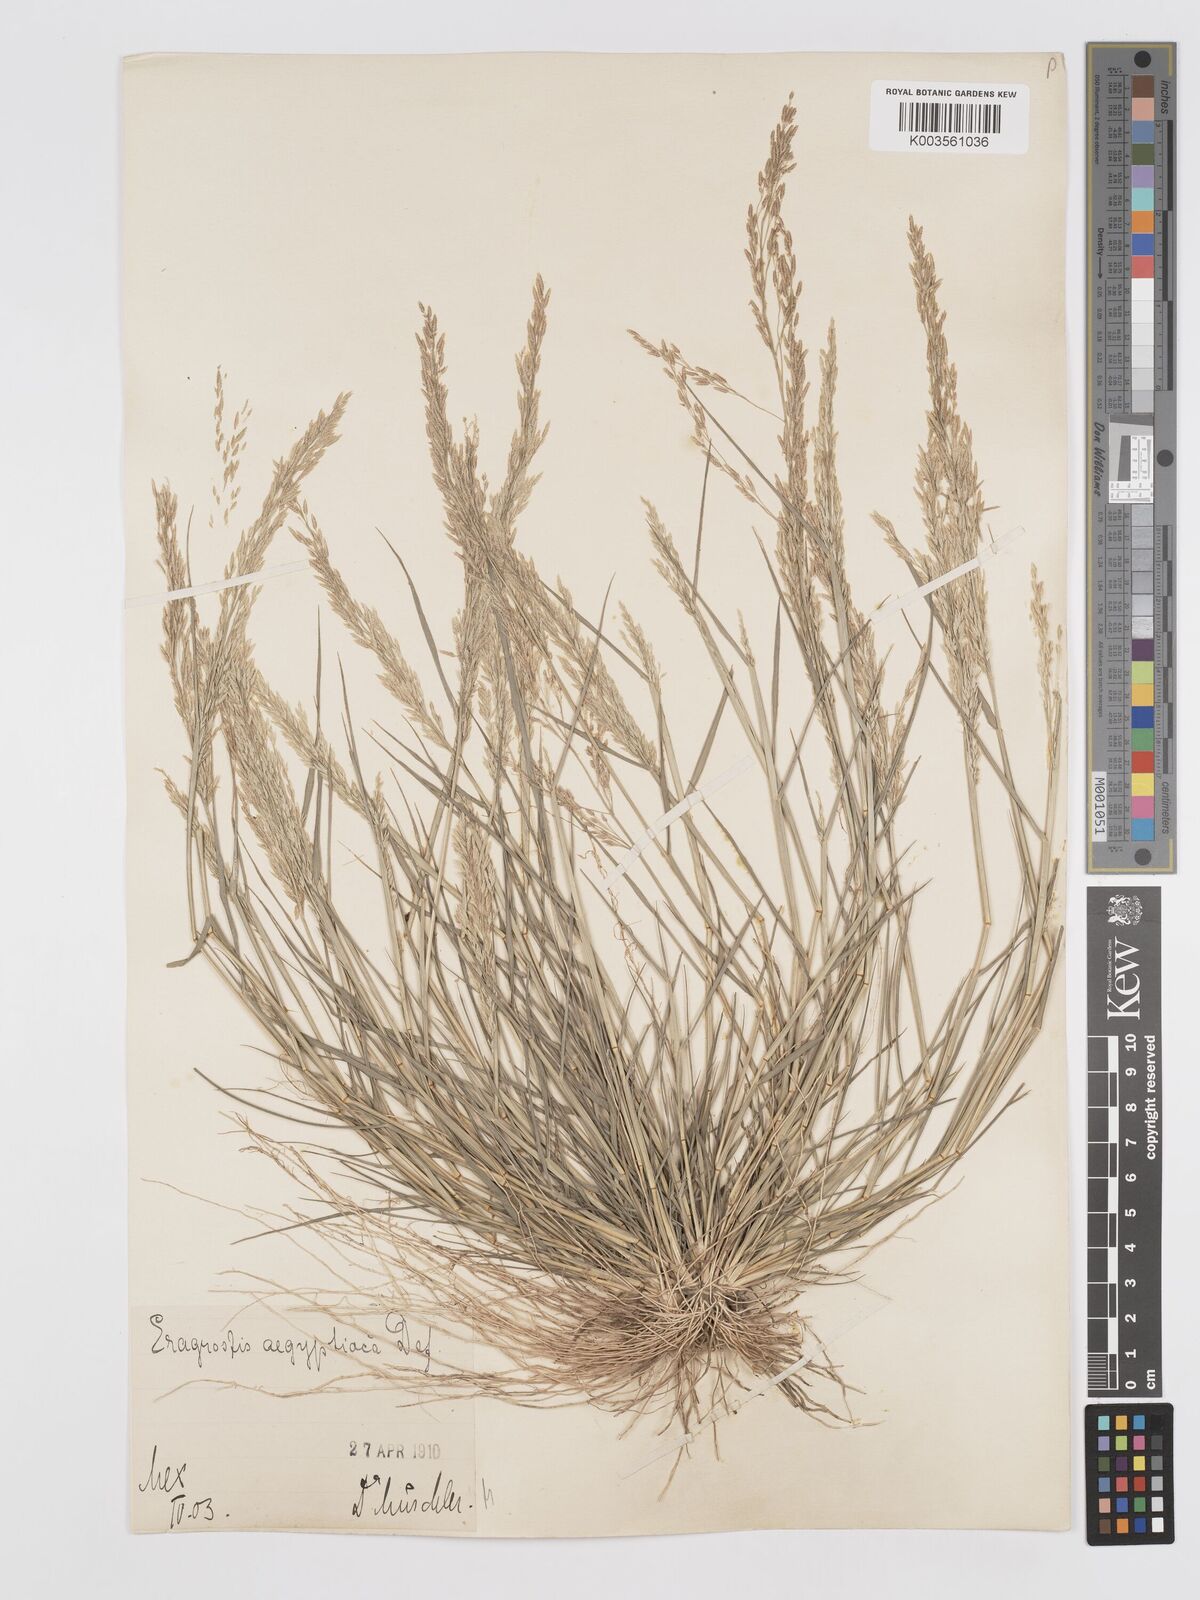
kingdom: Plantae
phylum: Tracheophyta
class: Liliopsida
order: Poales
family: Poaceae
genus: Eragrostis
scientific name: Eragrostis aegyptiaca
